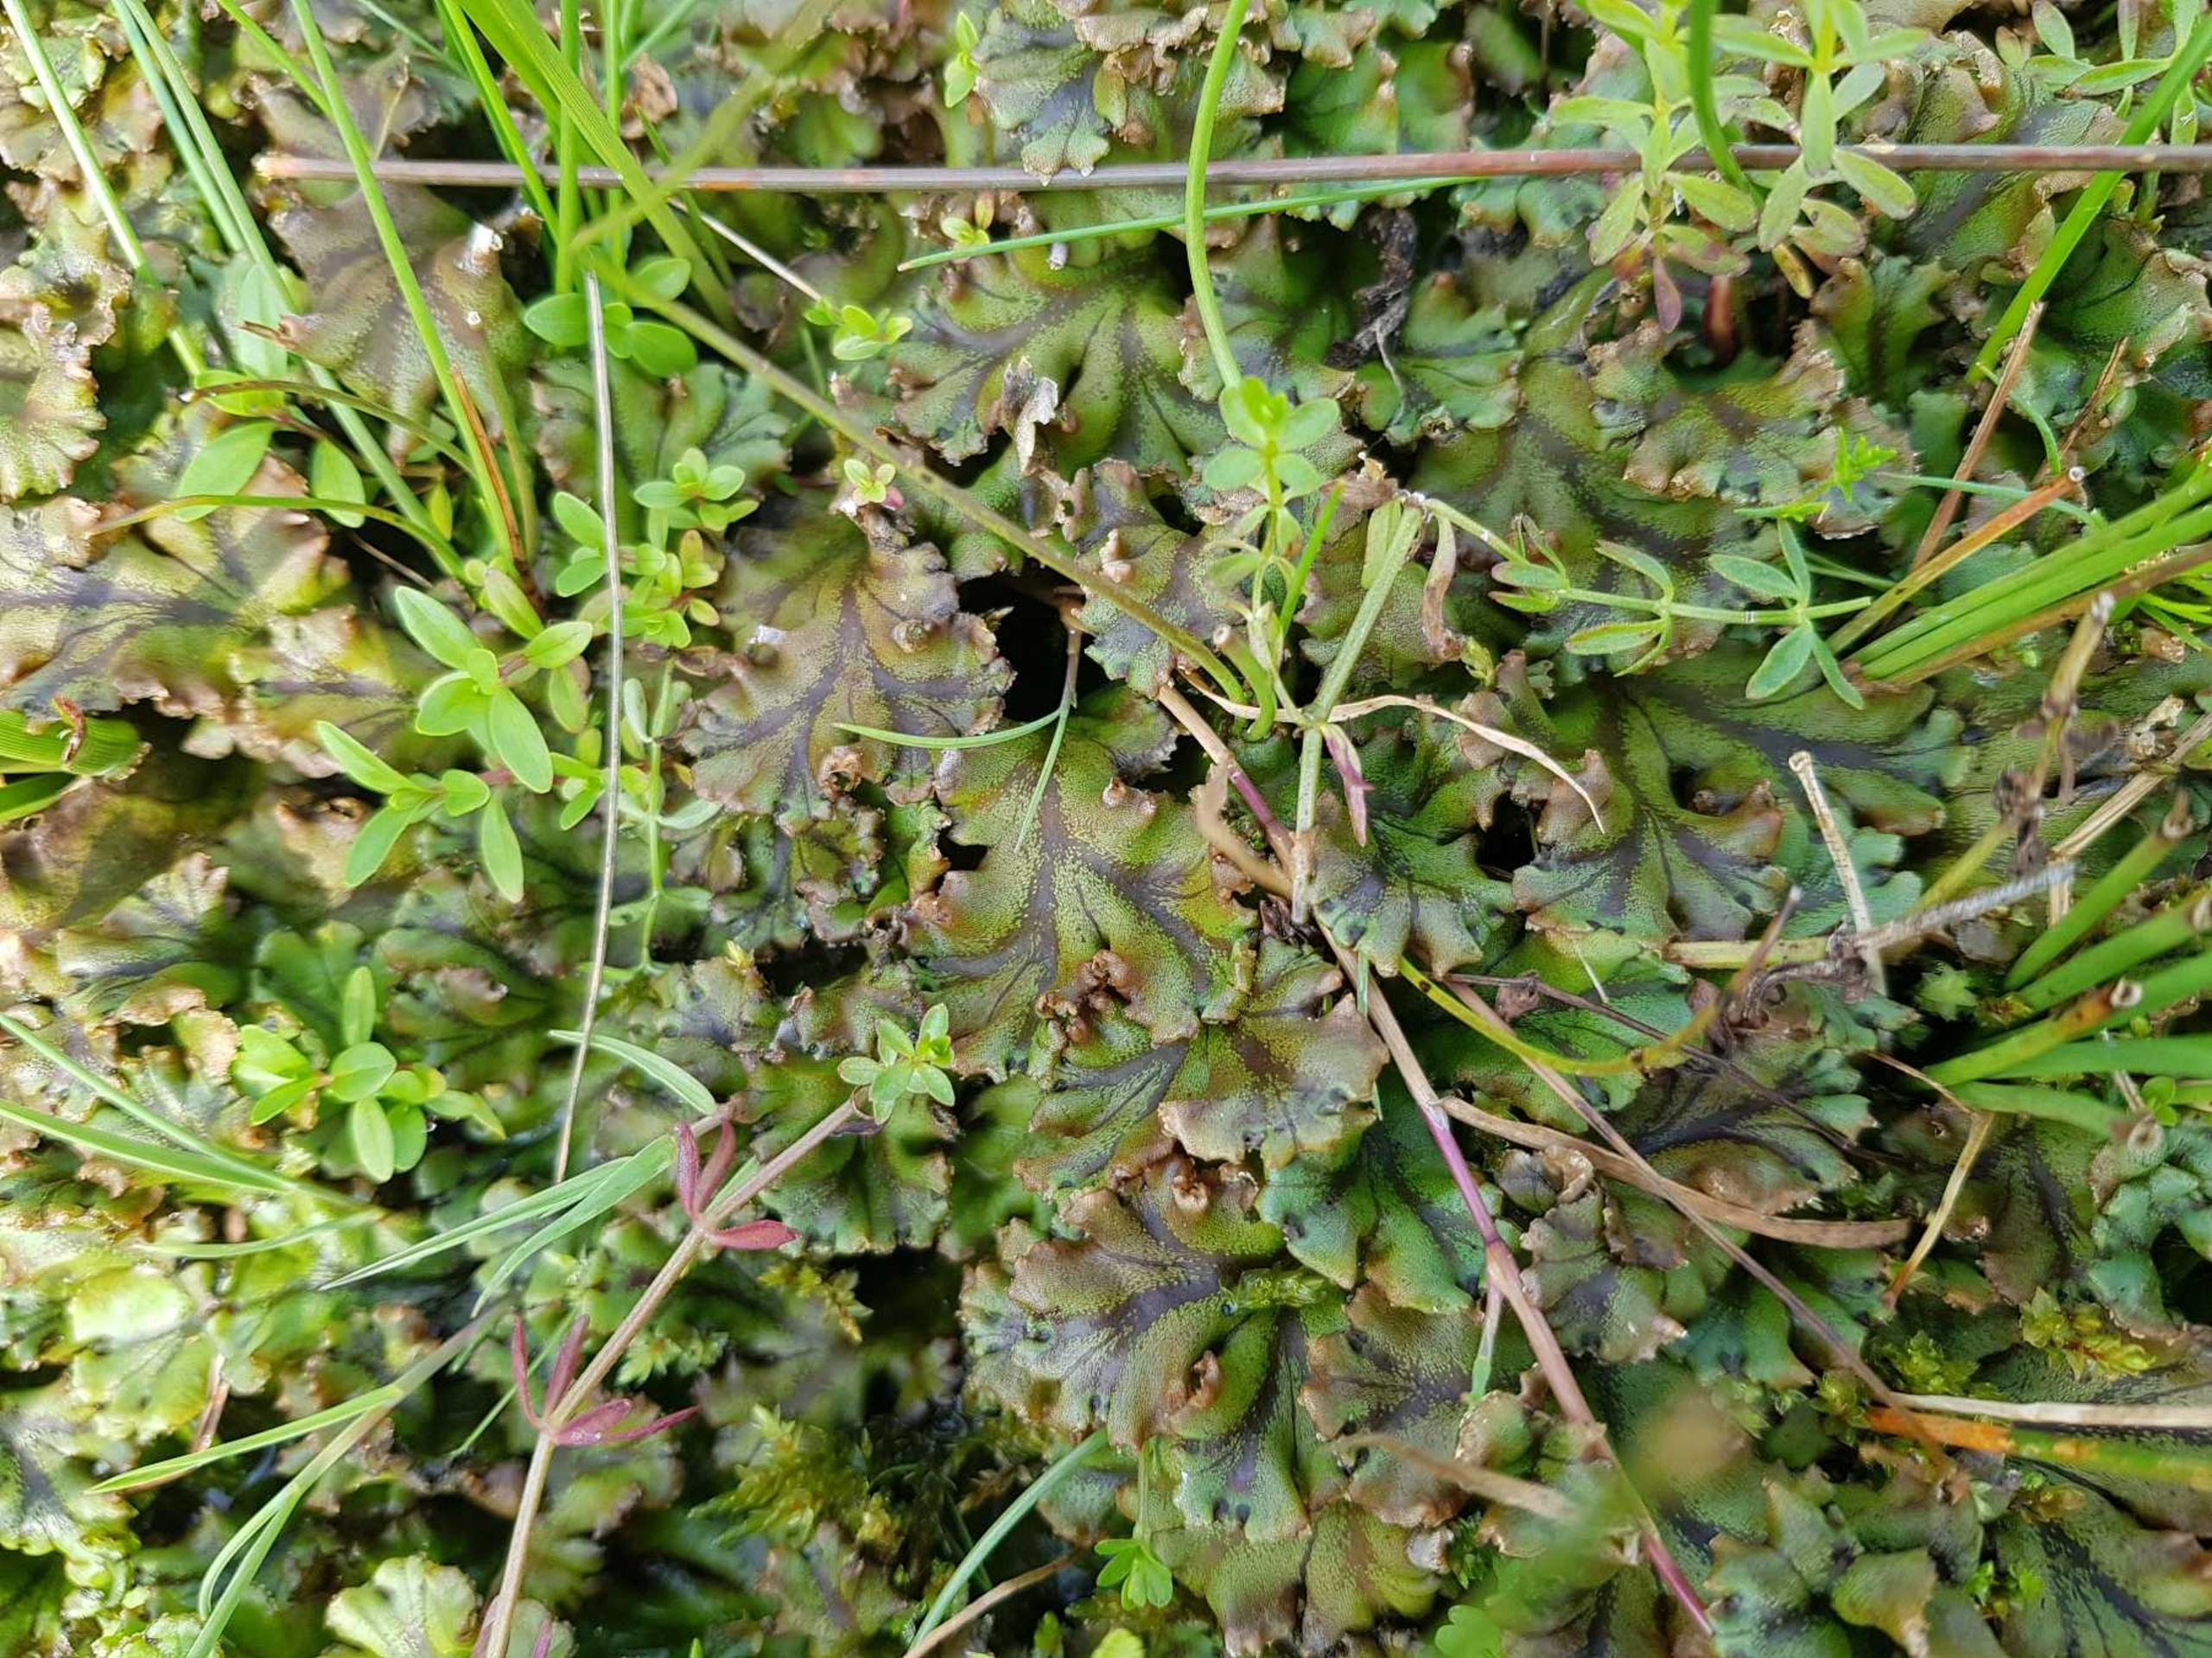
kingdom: Plantae
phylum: Marchantiophyta
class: Marchantiopsida
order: Marchantiales
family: Marchantiaceae
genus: Marchantia
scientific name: Marchantia polymorpha
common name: Mose-lungemos
